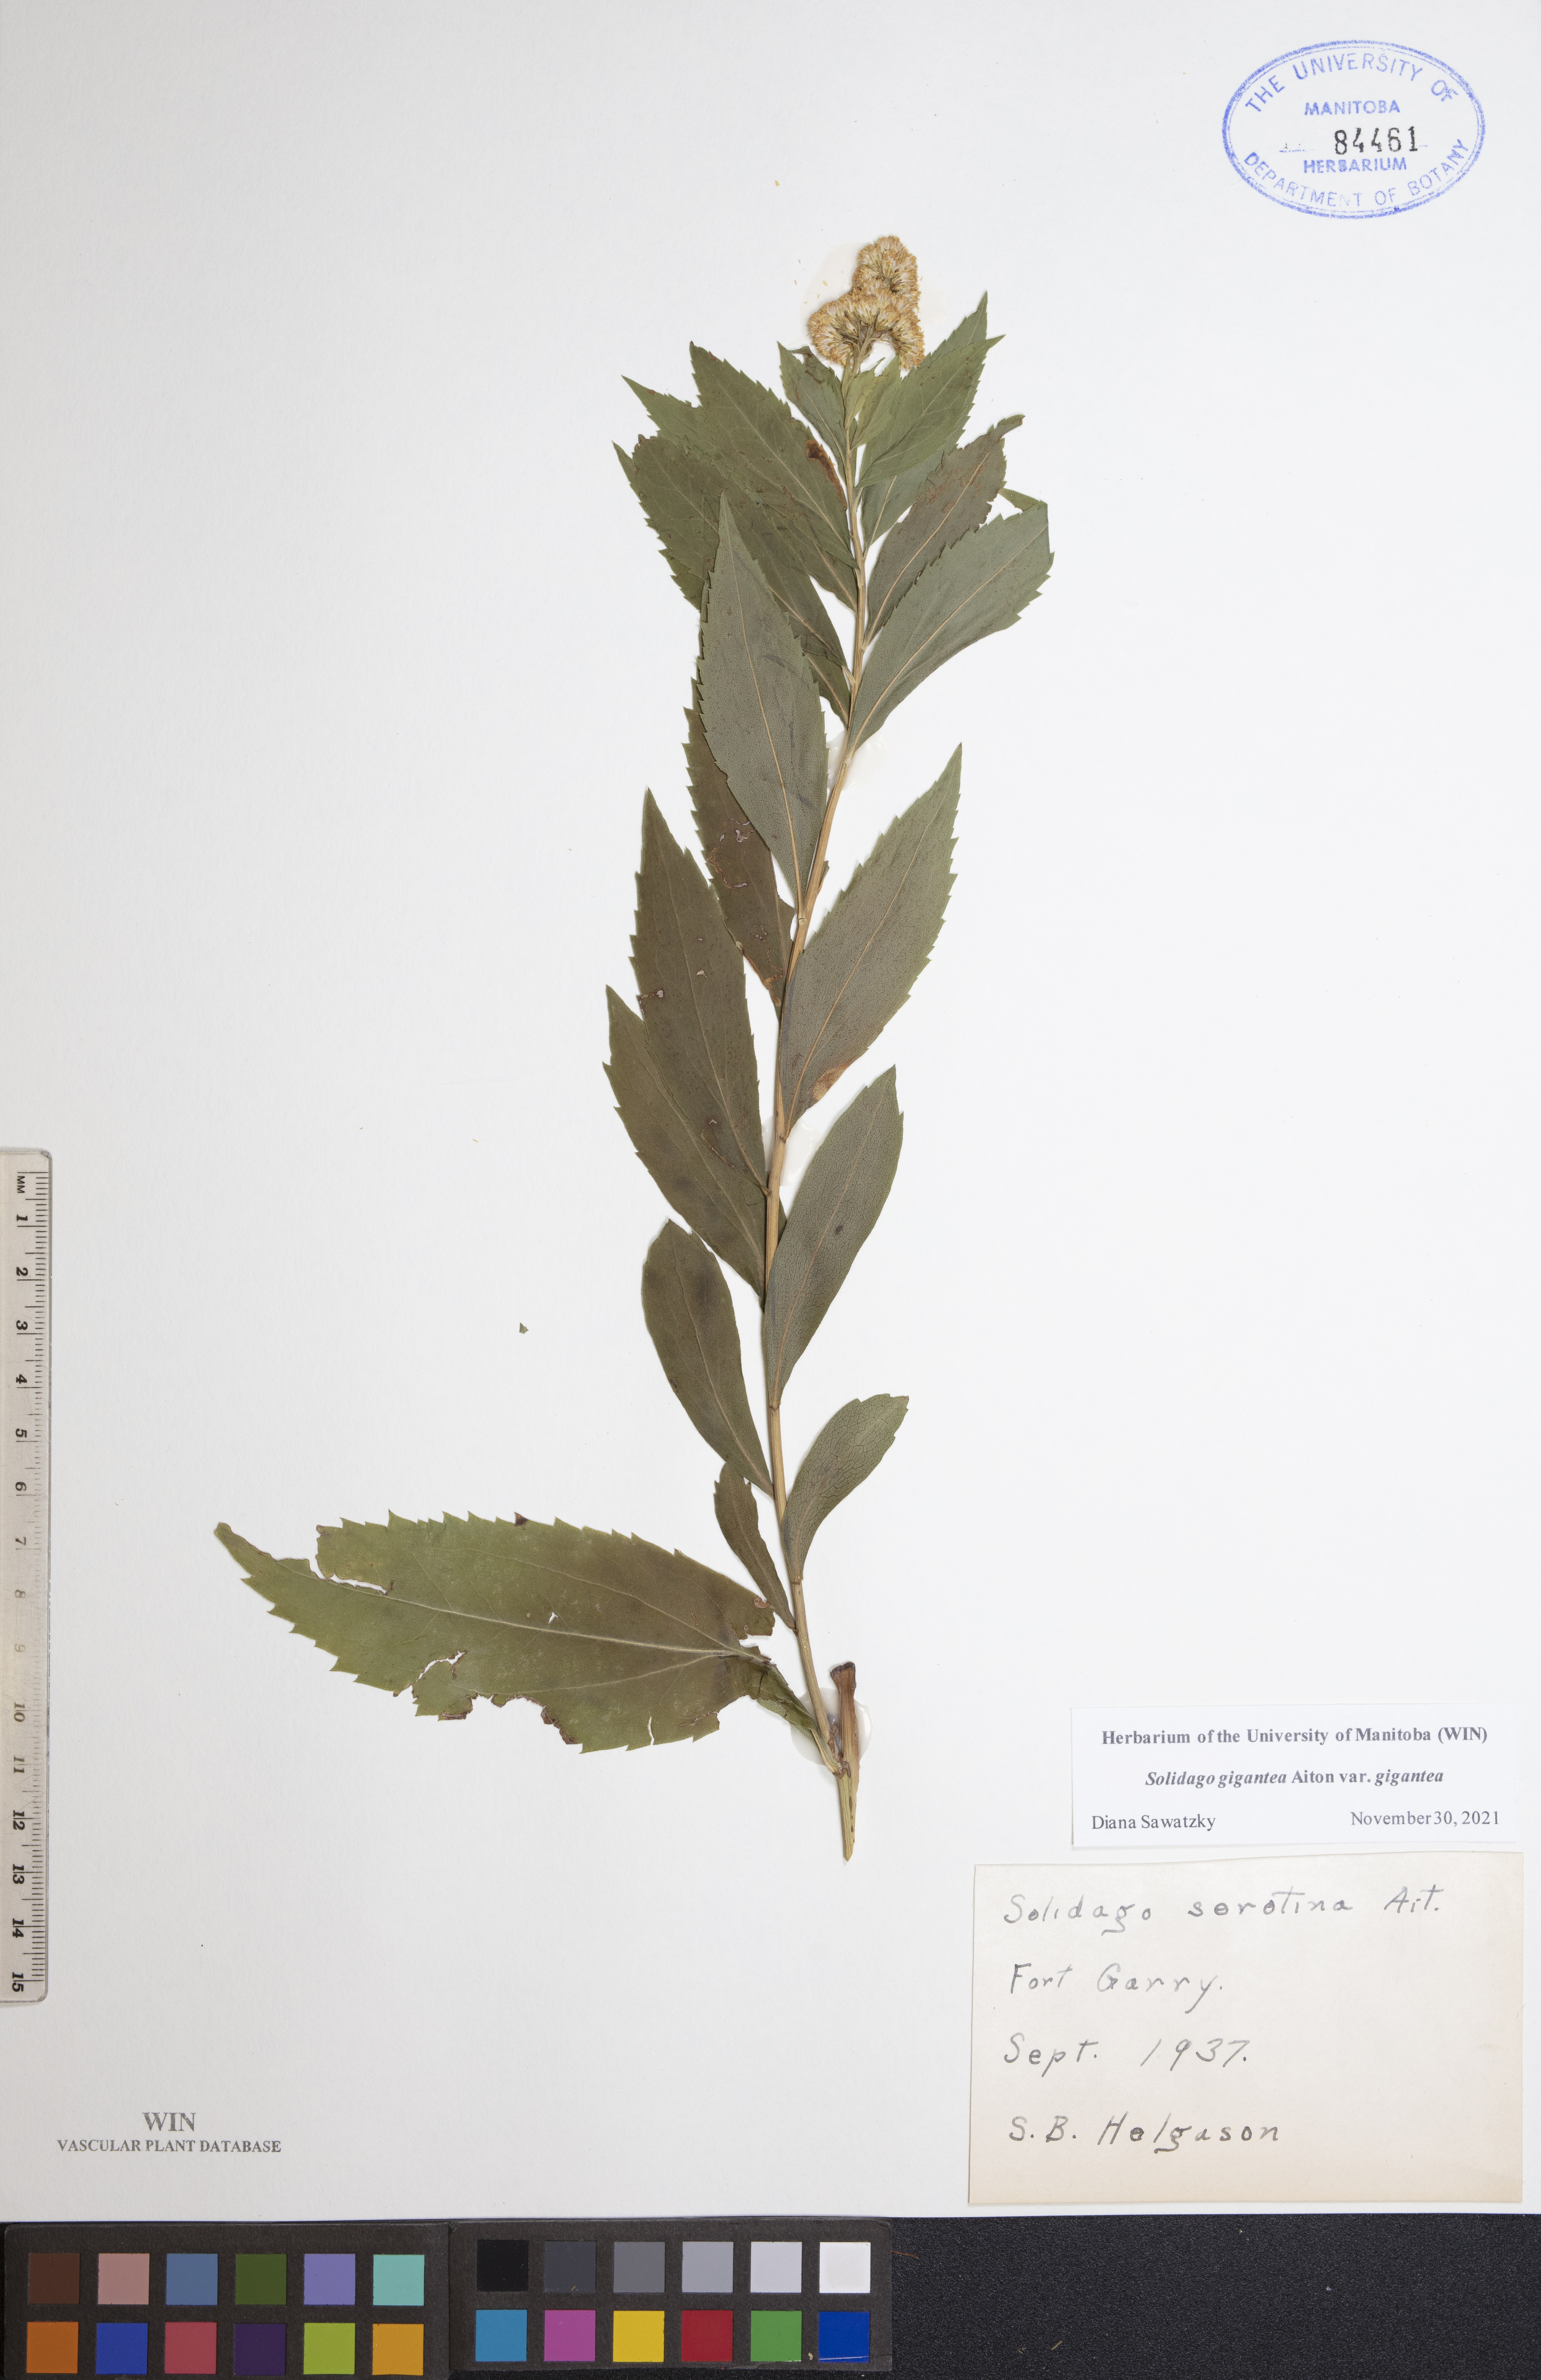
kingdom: Plantae
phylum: Tracheophyta
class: Magnoliopsida
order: Asterales
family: Asteraceae
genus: Solidago
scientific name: Solidago gigantea
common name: Giant goldenrod
